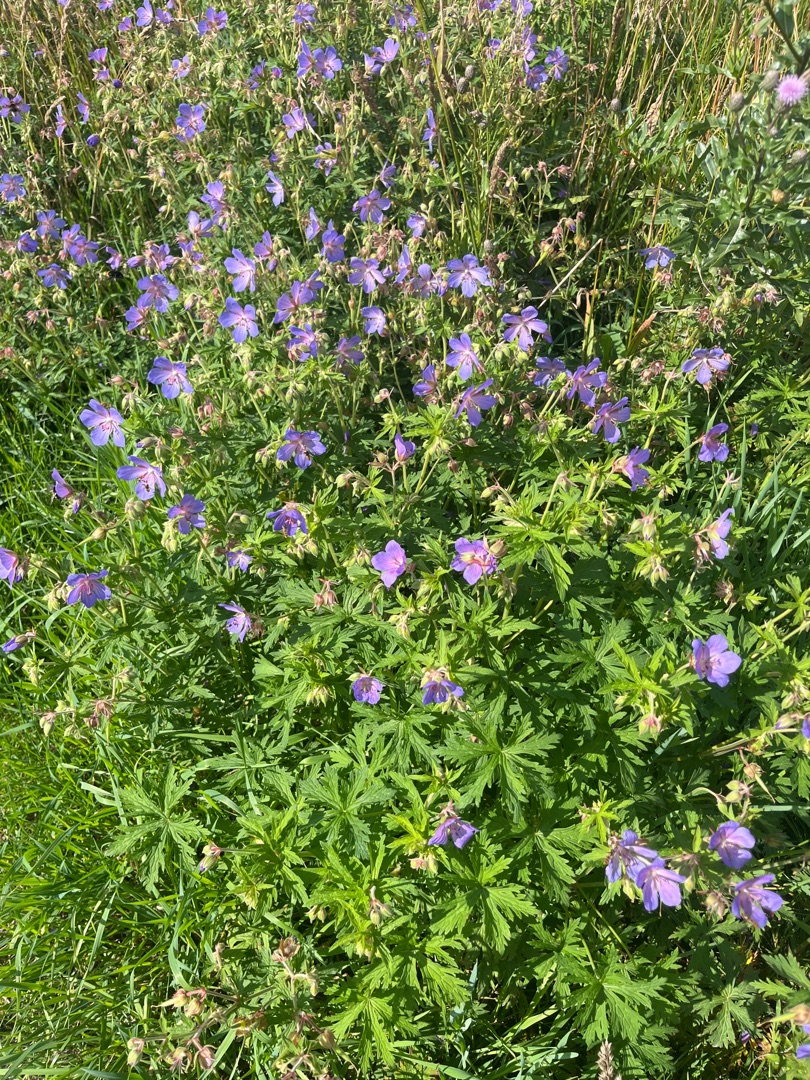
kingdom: Plantae
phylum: Tracheophyta
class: Magnoliopsida
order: Geraniales
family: Geraniaceae
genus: Geranium
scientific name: Geranium pratense
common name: Eng-storkenæb
